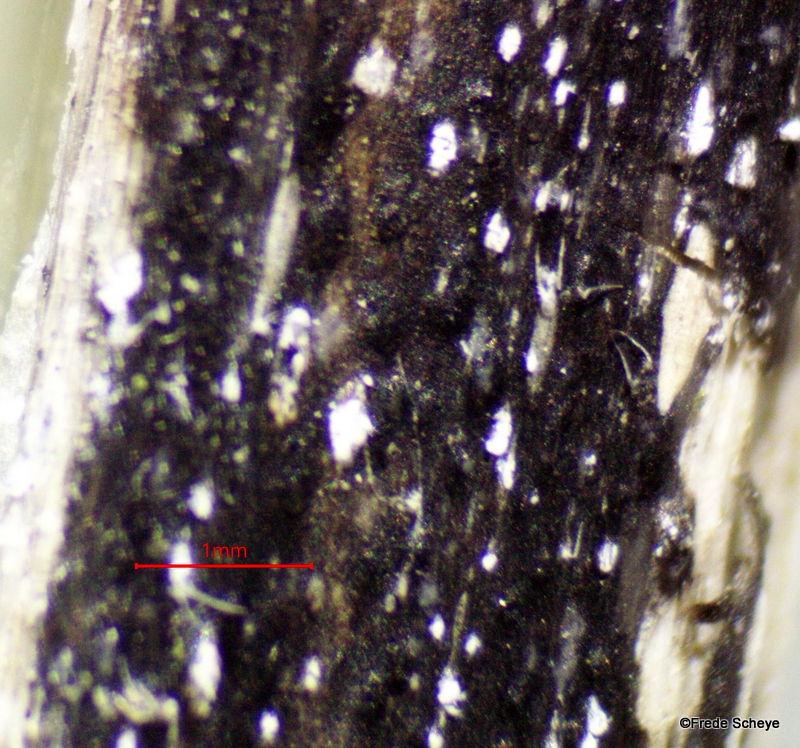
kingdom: Fungi
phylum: Ascomycota
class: Sordariomycetes
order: Diaporthales
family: Diaporthaceae
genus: Diaporthopsis
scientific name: Diaporthopsis urticae
